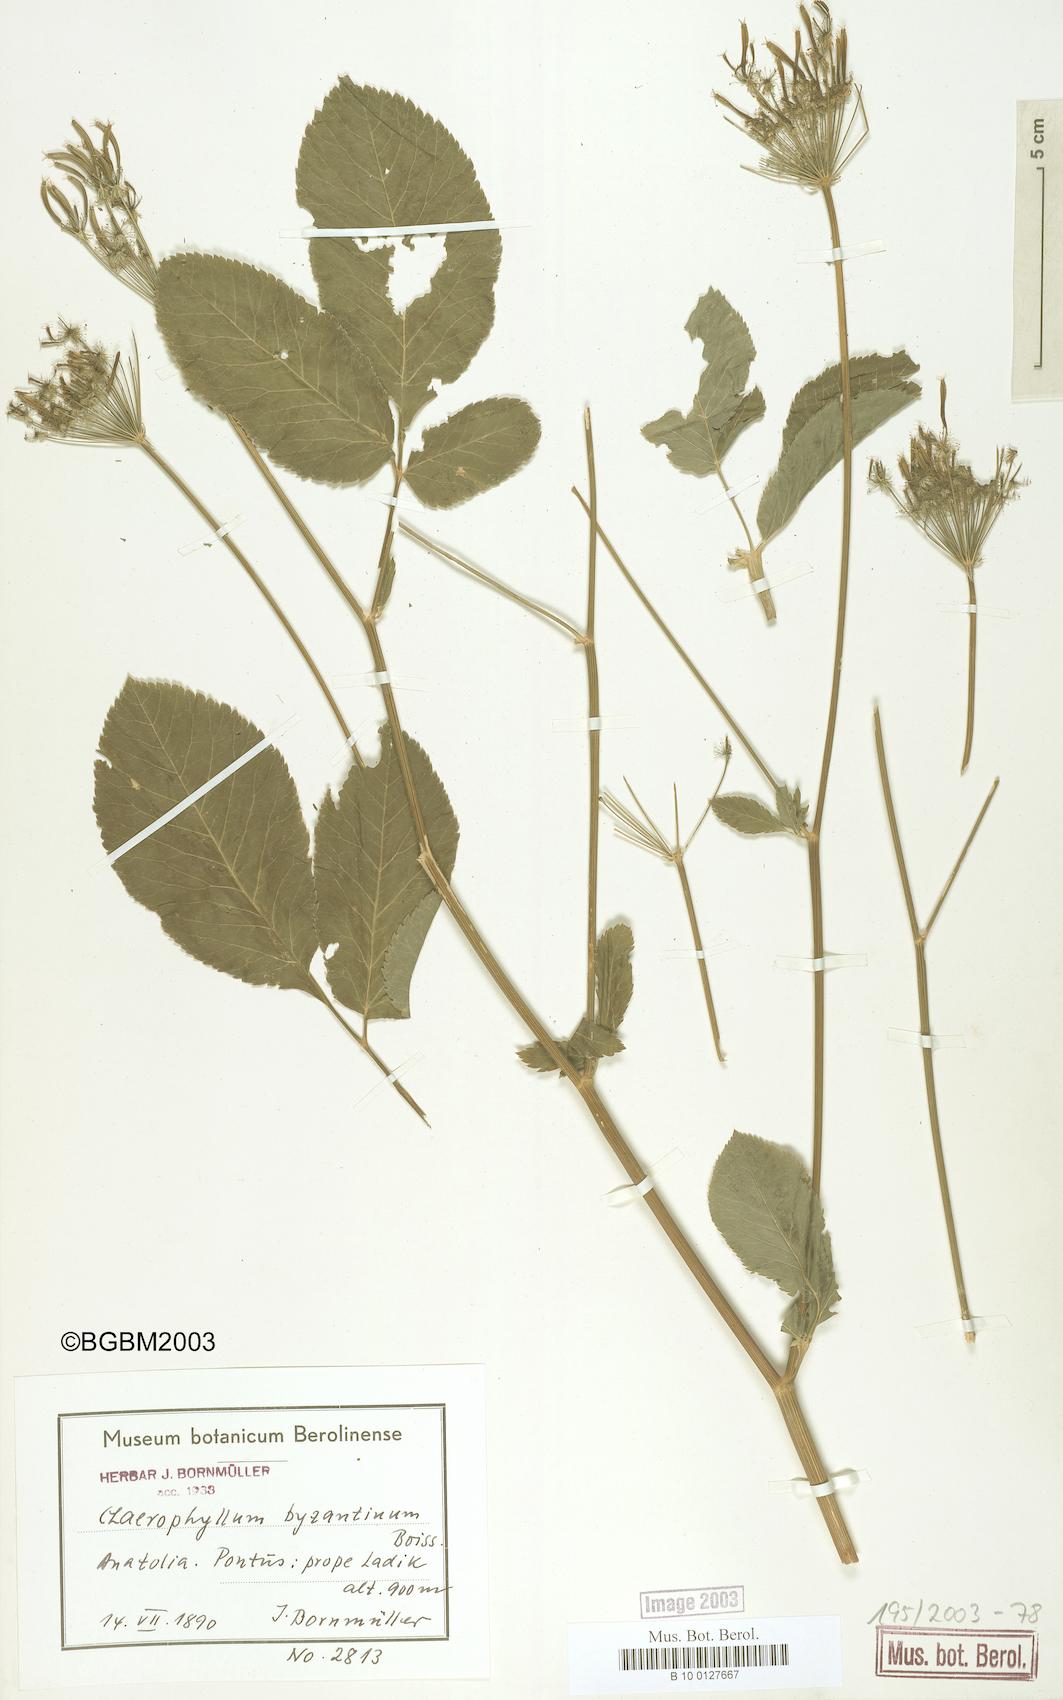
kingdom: Plantae
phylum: Tracheophyta
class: Magnoliopsida
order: Apiales
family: Apiaceae
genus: Chaerophyllum
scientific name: Chaerophyllum byzantinum
